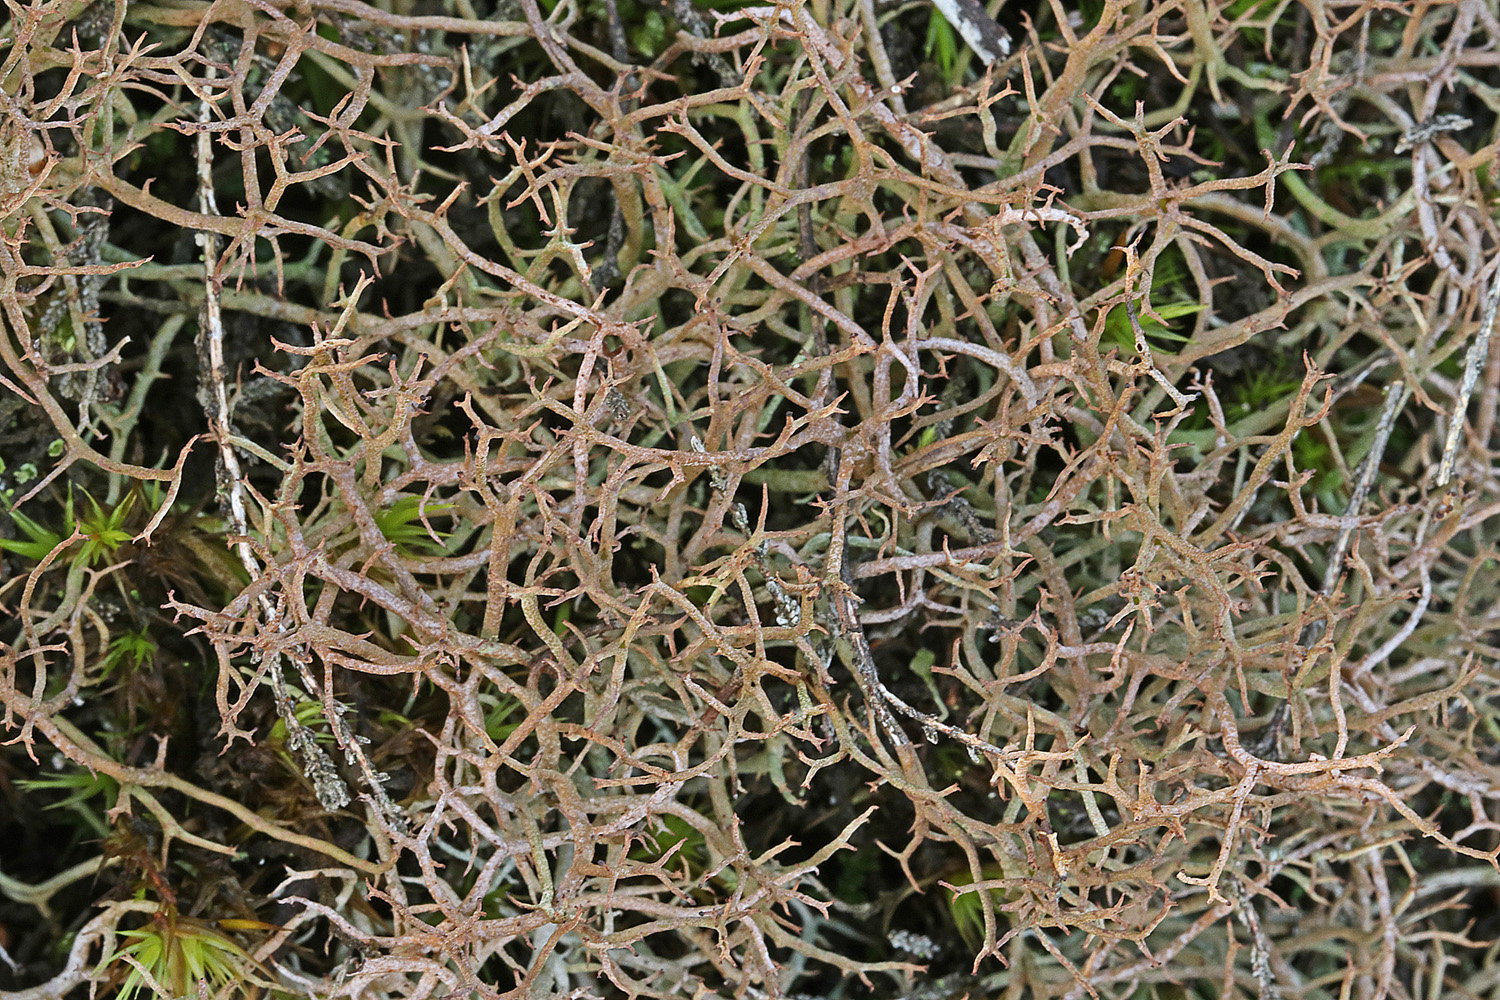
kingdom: Fungi
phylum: Ascomycota
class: Lecanoromycetes
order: Lecanorales
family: Cladoniaceae
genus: Cladonia
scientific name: Cladonia furcata
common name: kløftet bægerlav
